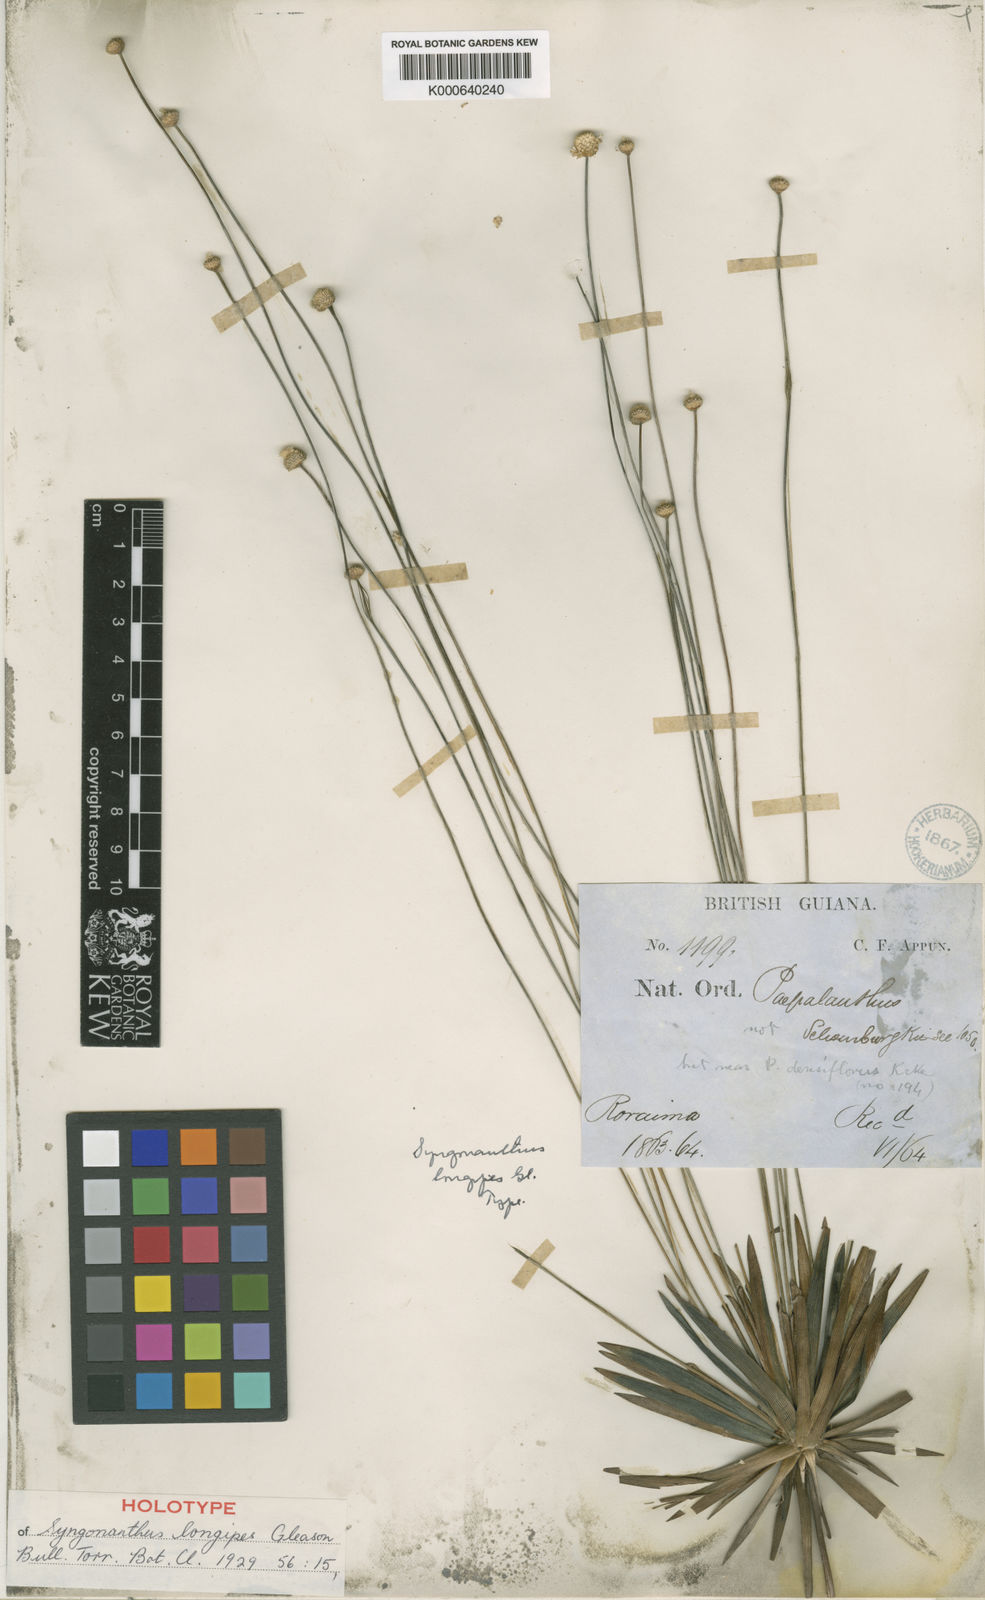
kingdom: Plantae
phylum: Tracheophyta
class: Liliopsida
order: Poales
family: Eriocaulaceae
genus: Syngonanthus
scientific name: Syngonanthus longipes
